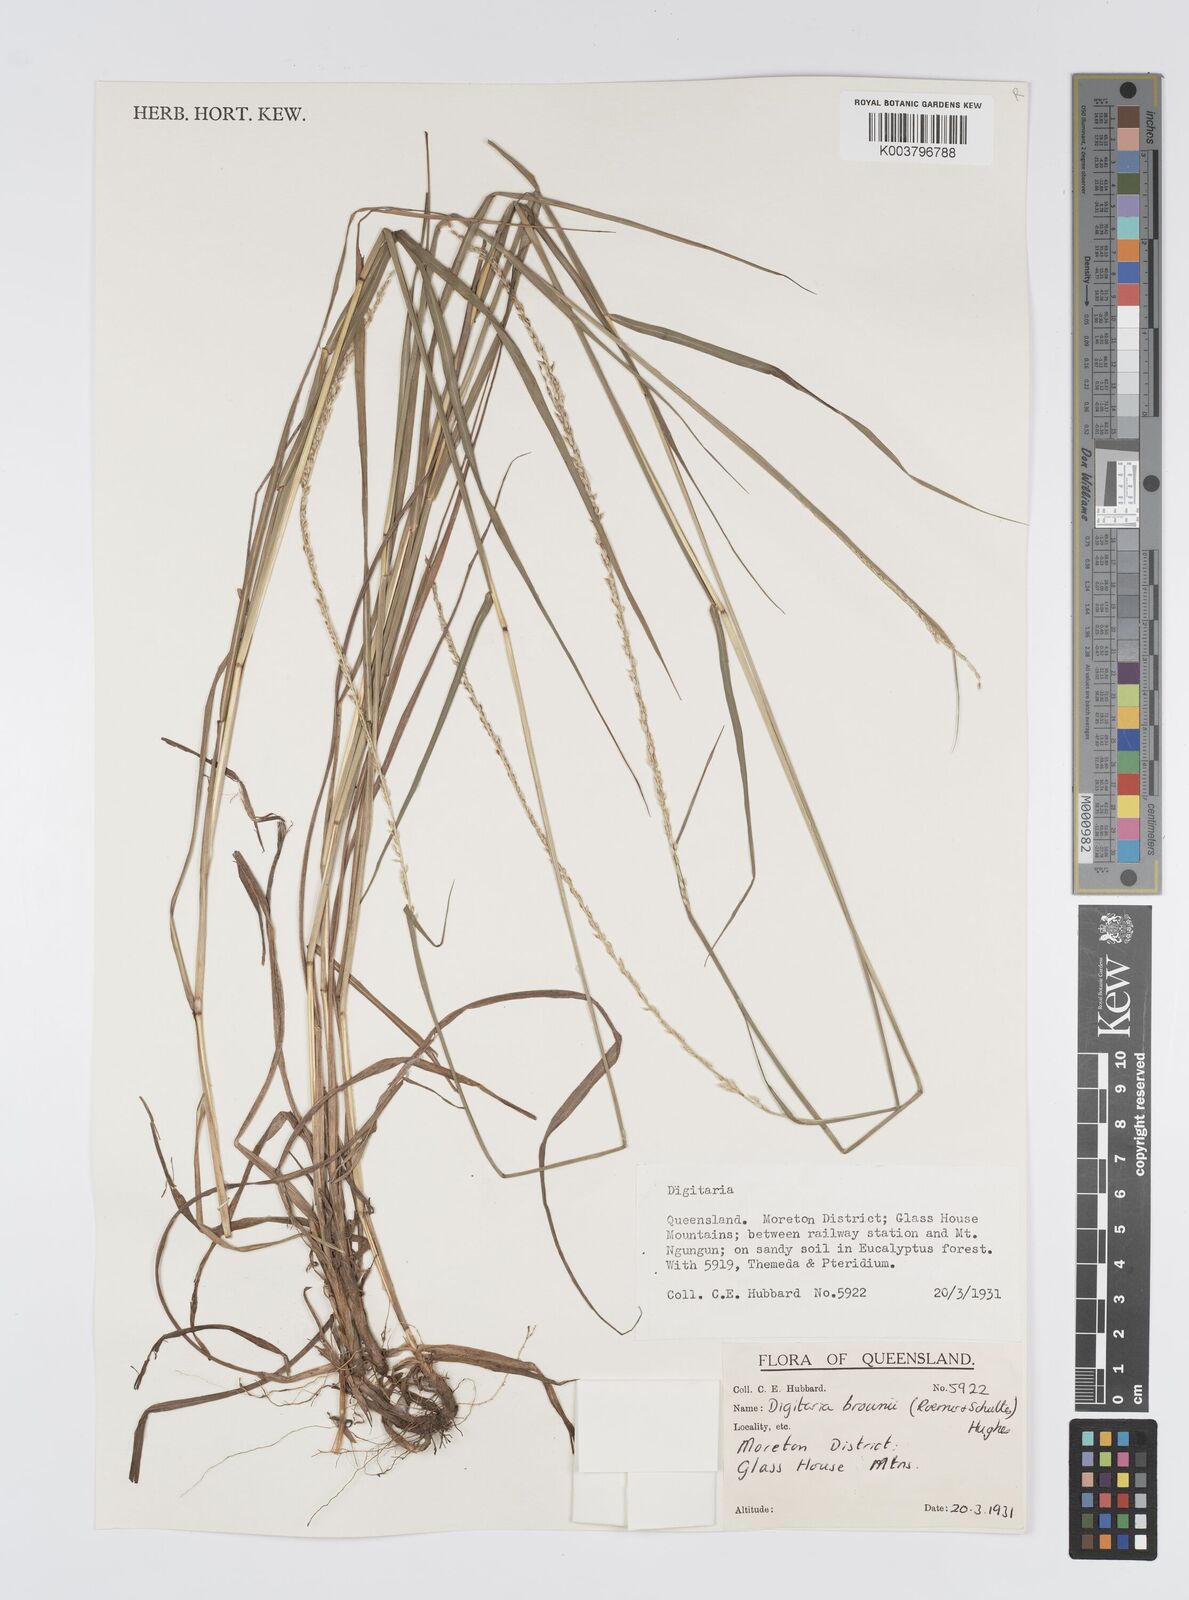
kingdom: Plantae
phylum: Tracheophyta
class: Liliopsida
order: Poales
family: Poaceae
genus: Digitaria
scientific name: Digitaria brownii
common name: Cotton grass
